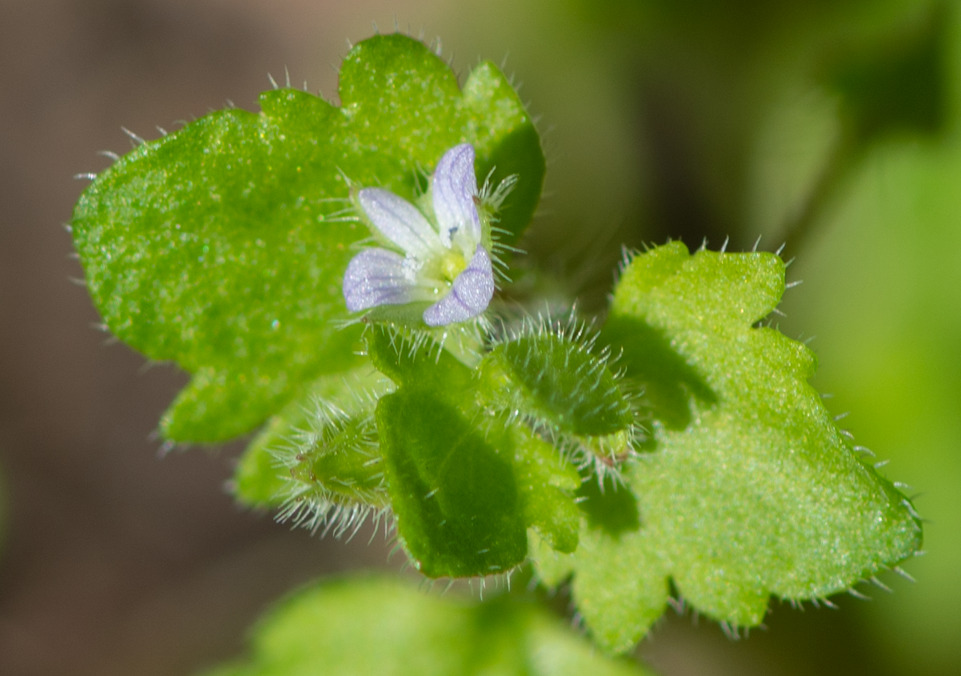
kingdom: Plantae
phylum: Tracheophyta
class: Magnoliopsida
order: Lamiales
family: Plantaginaceae
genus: Veronica
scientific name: Veronica sublobata
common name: Krat-ærenpris
